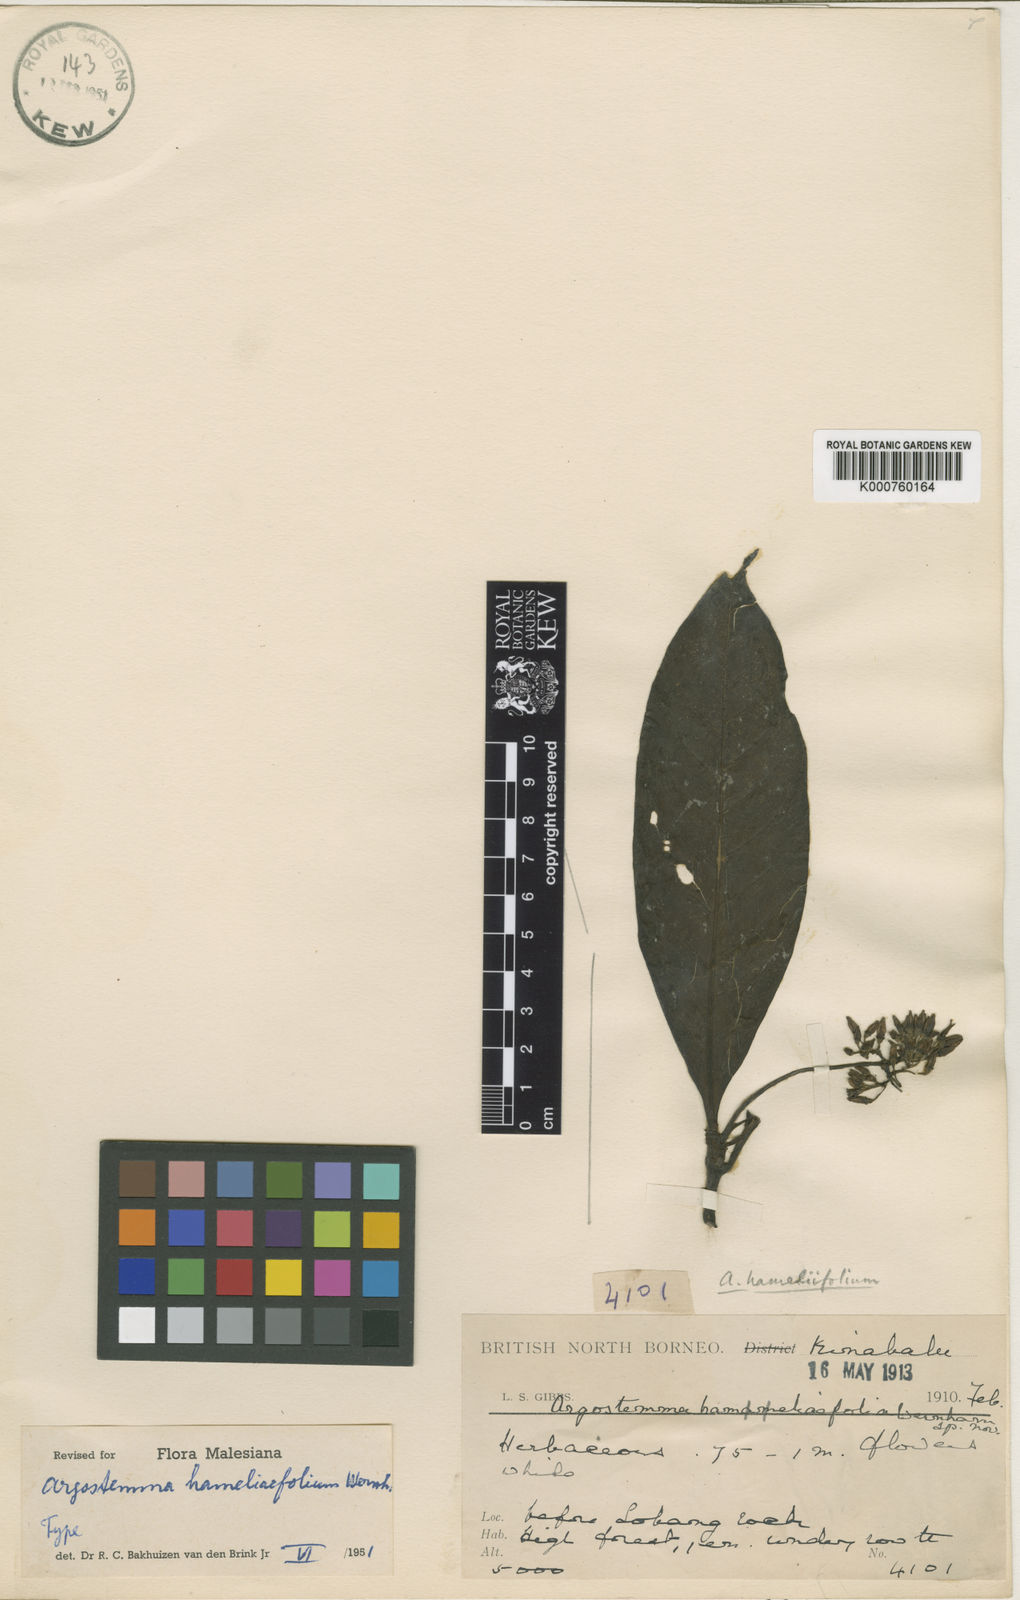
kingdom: Plantae
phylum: Tracheophyta
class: Magnoliopsida
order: Gentianales
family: Rubiaceae
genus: Argostemma
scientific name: Argostemma hameliifolium
